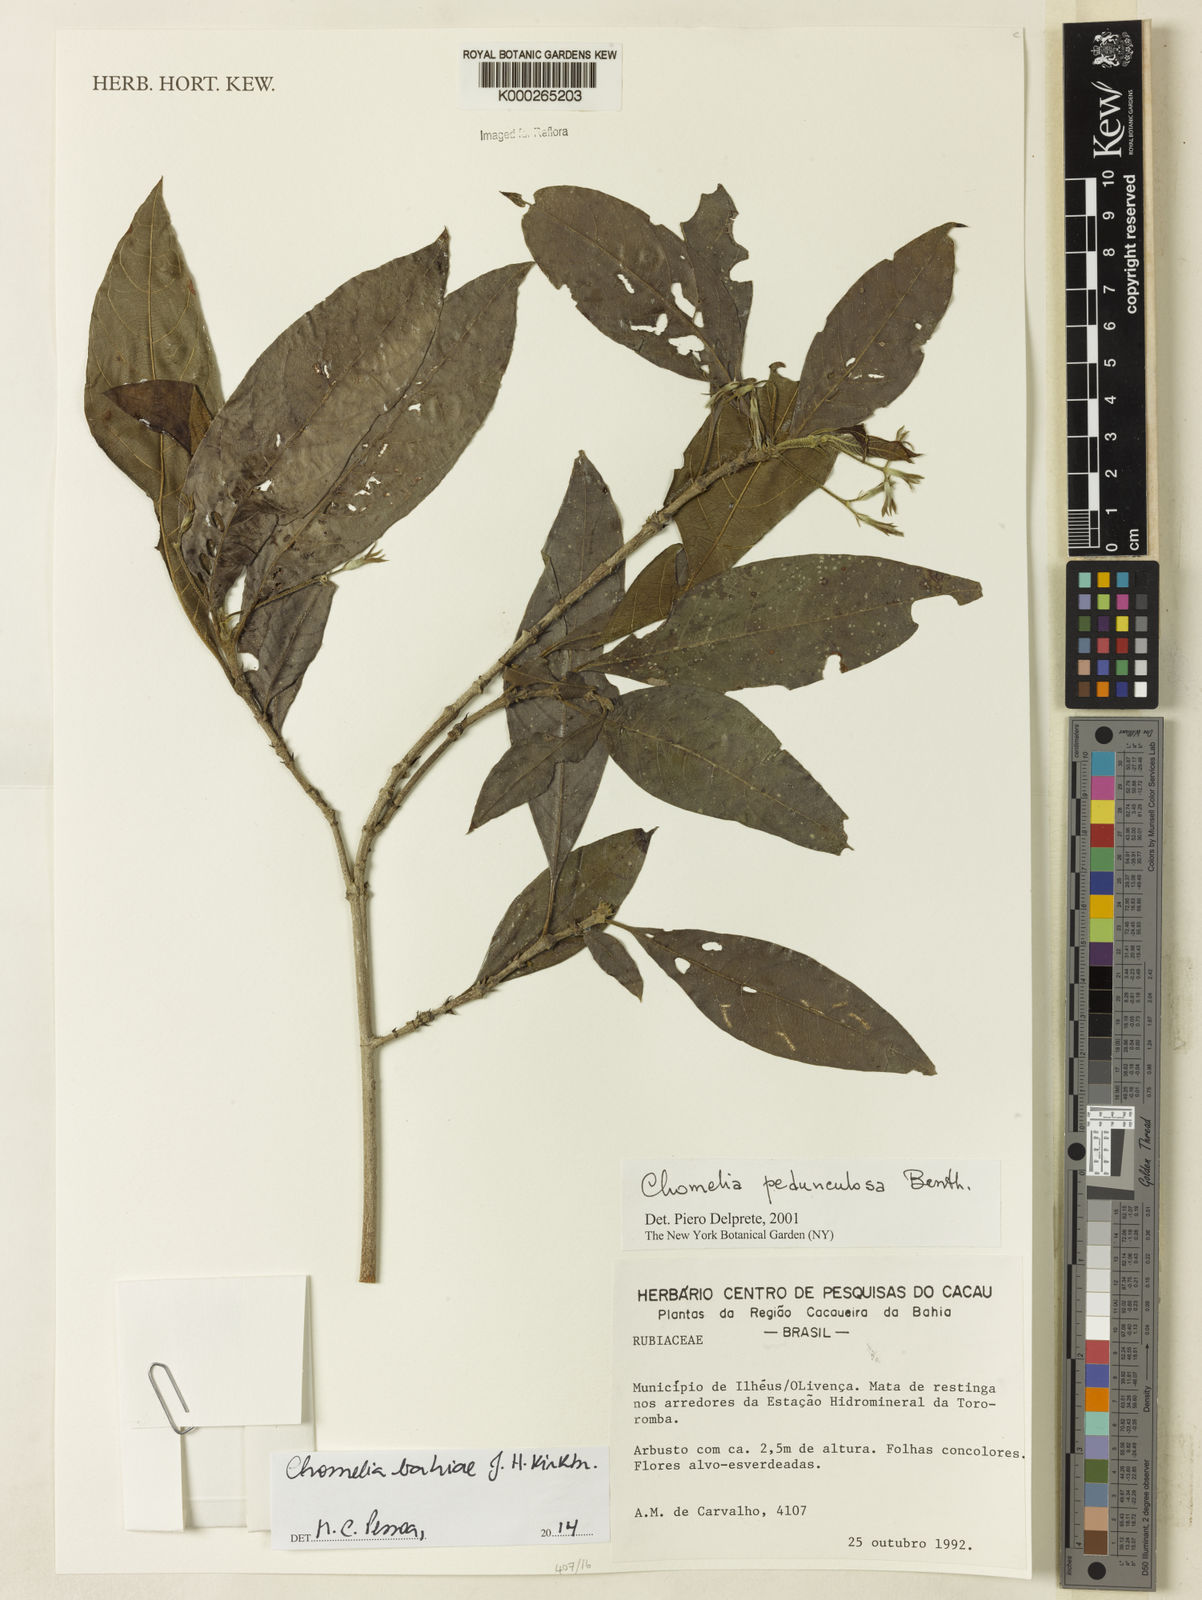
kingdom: Plantae
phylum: Tracheophyta
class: Magnoliopsida
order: Gentianales
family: Rubiaceae
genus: Chomelia
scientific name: Chomelia bahiae
